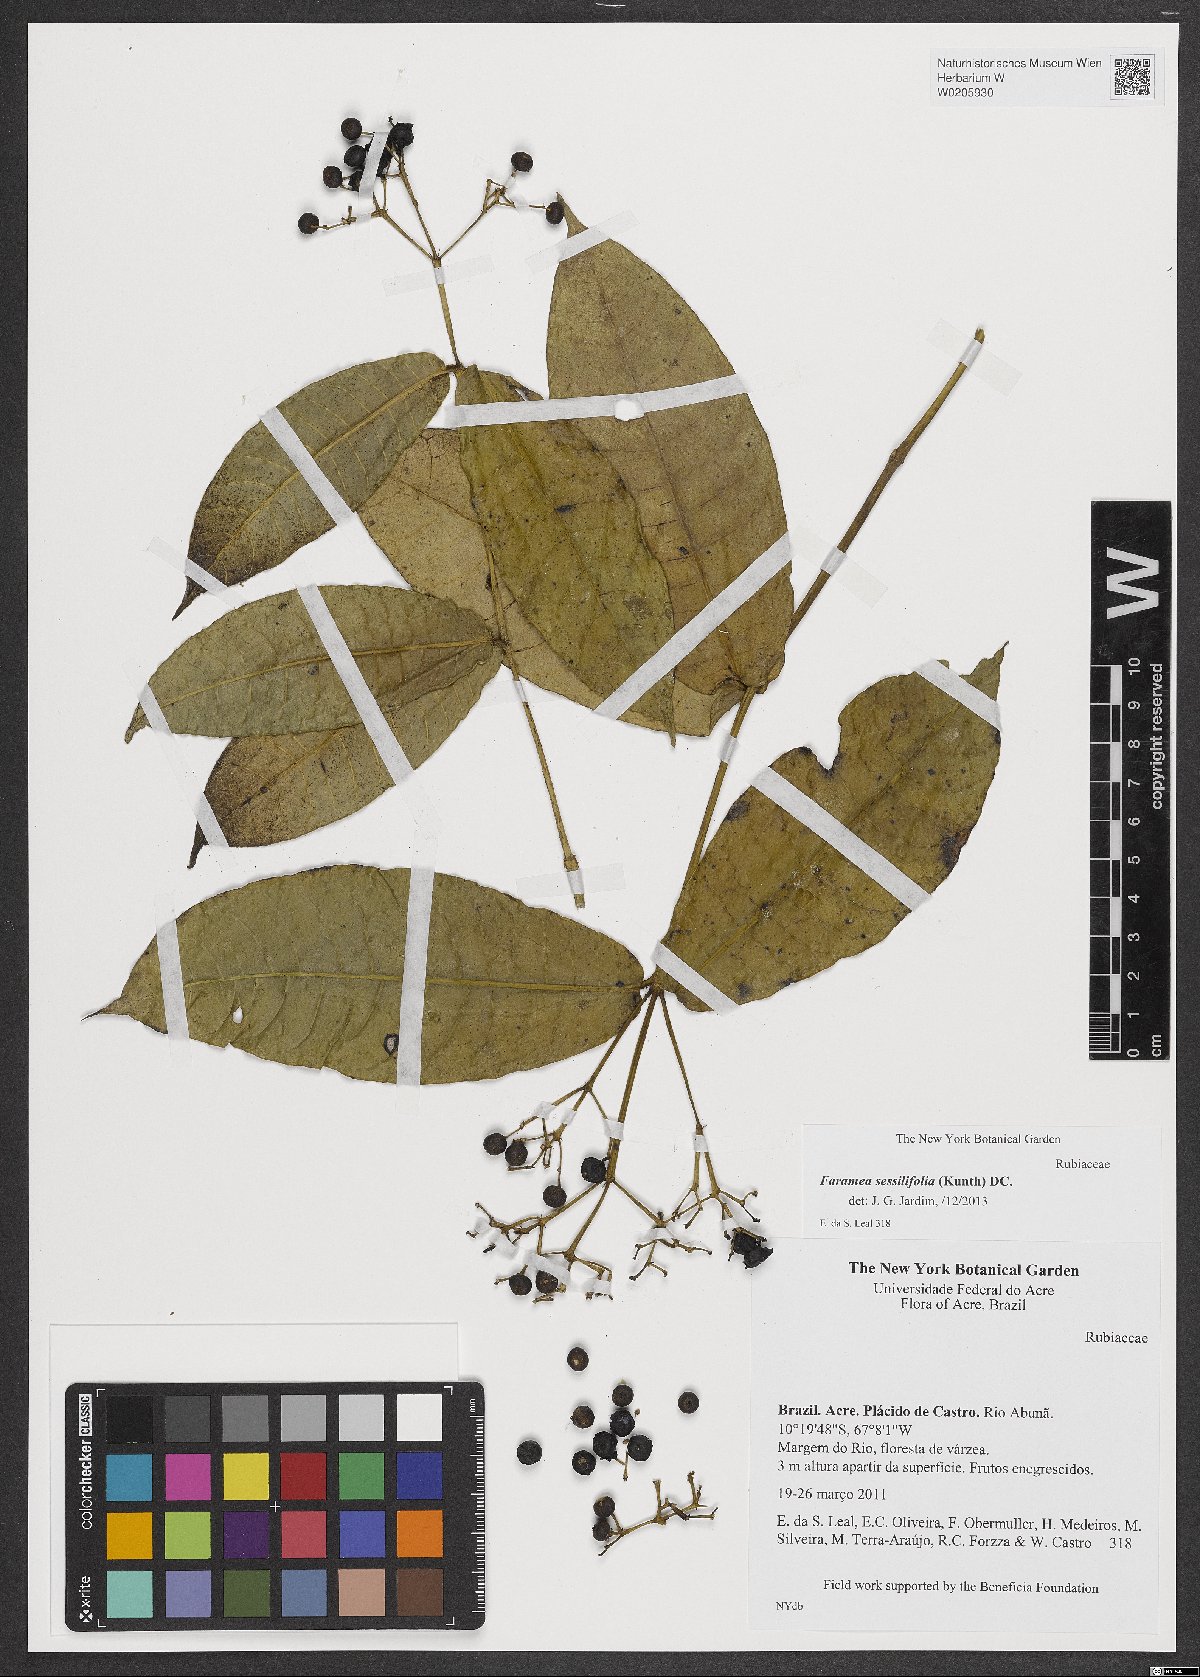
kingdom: Plantae
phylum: Tracheophyta
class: Magnoliopsida
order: Gentianales
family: Rubiaceae
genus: Faramea
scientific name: Faramea sessilifolia
